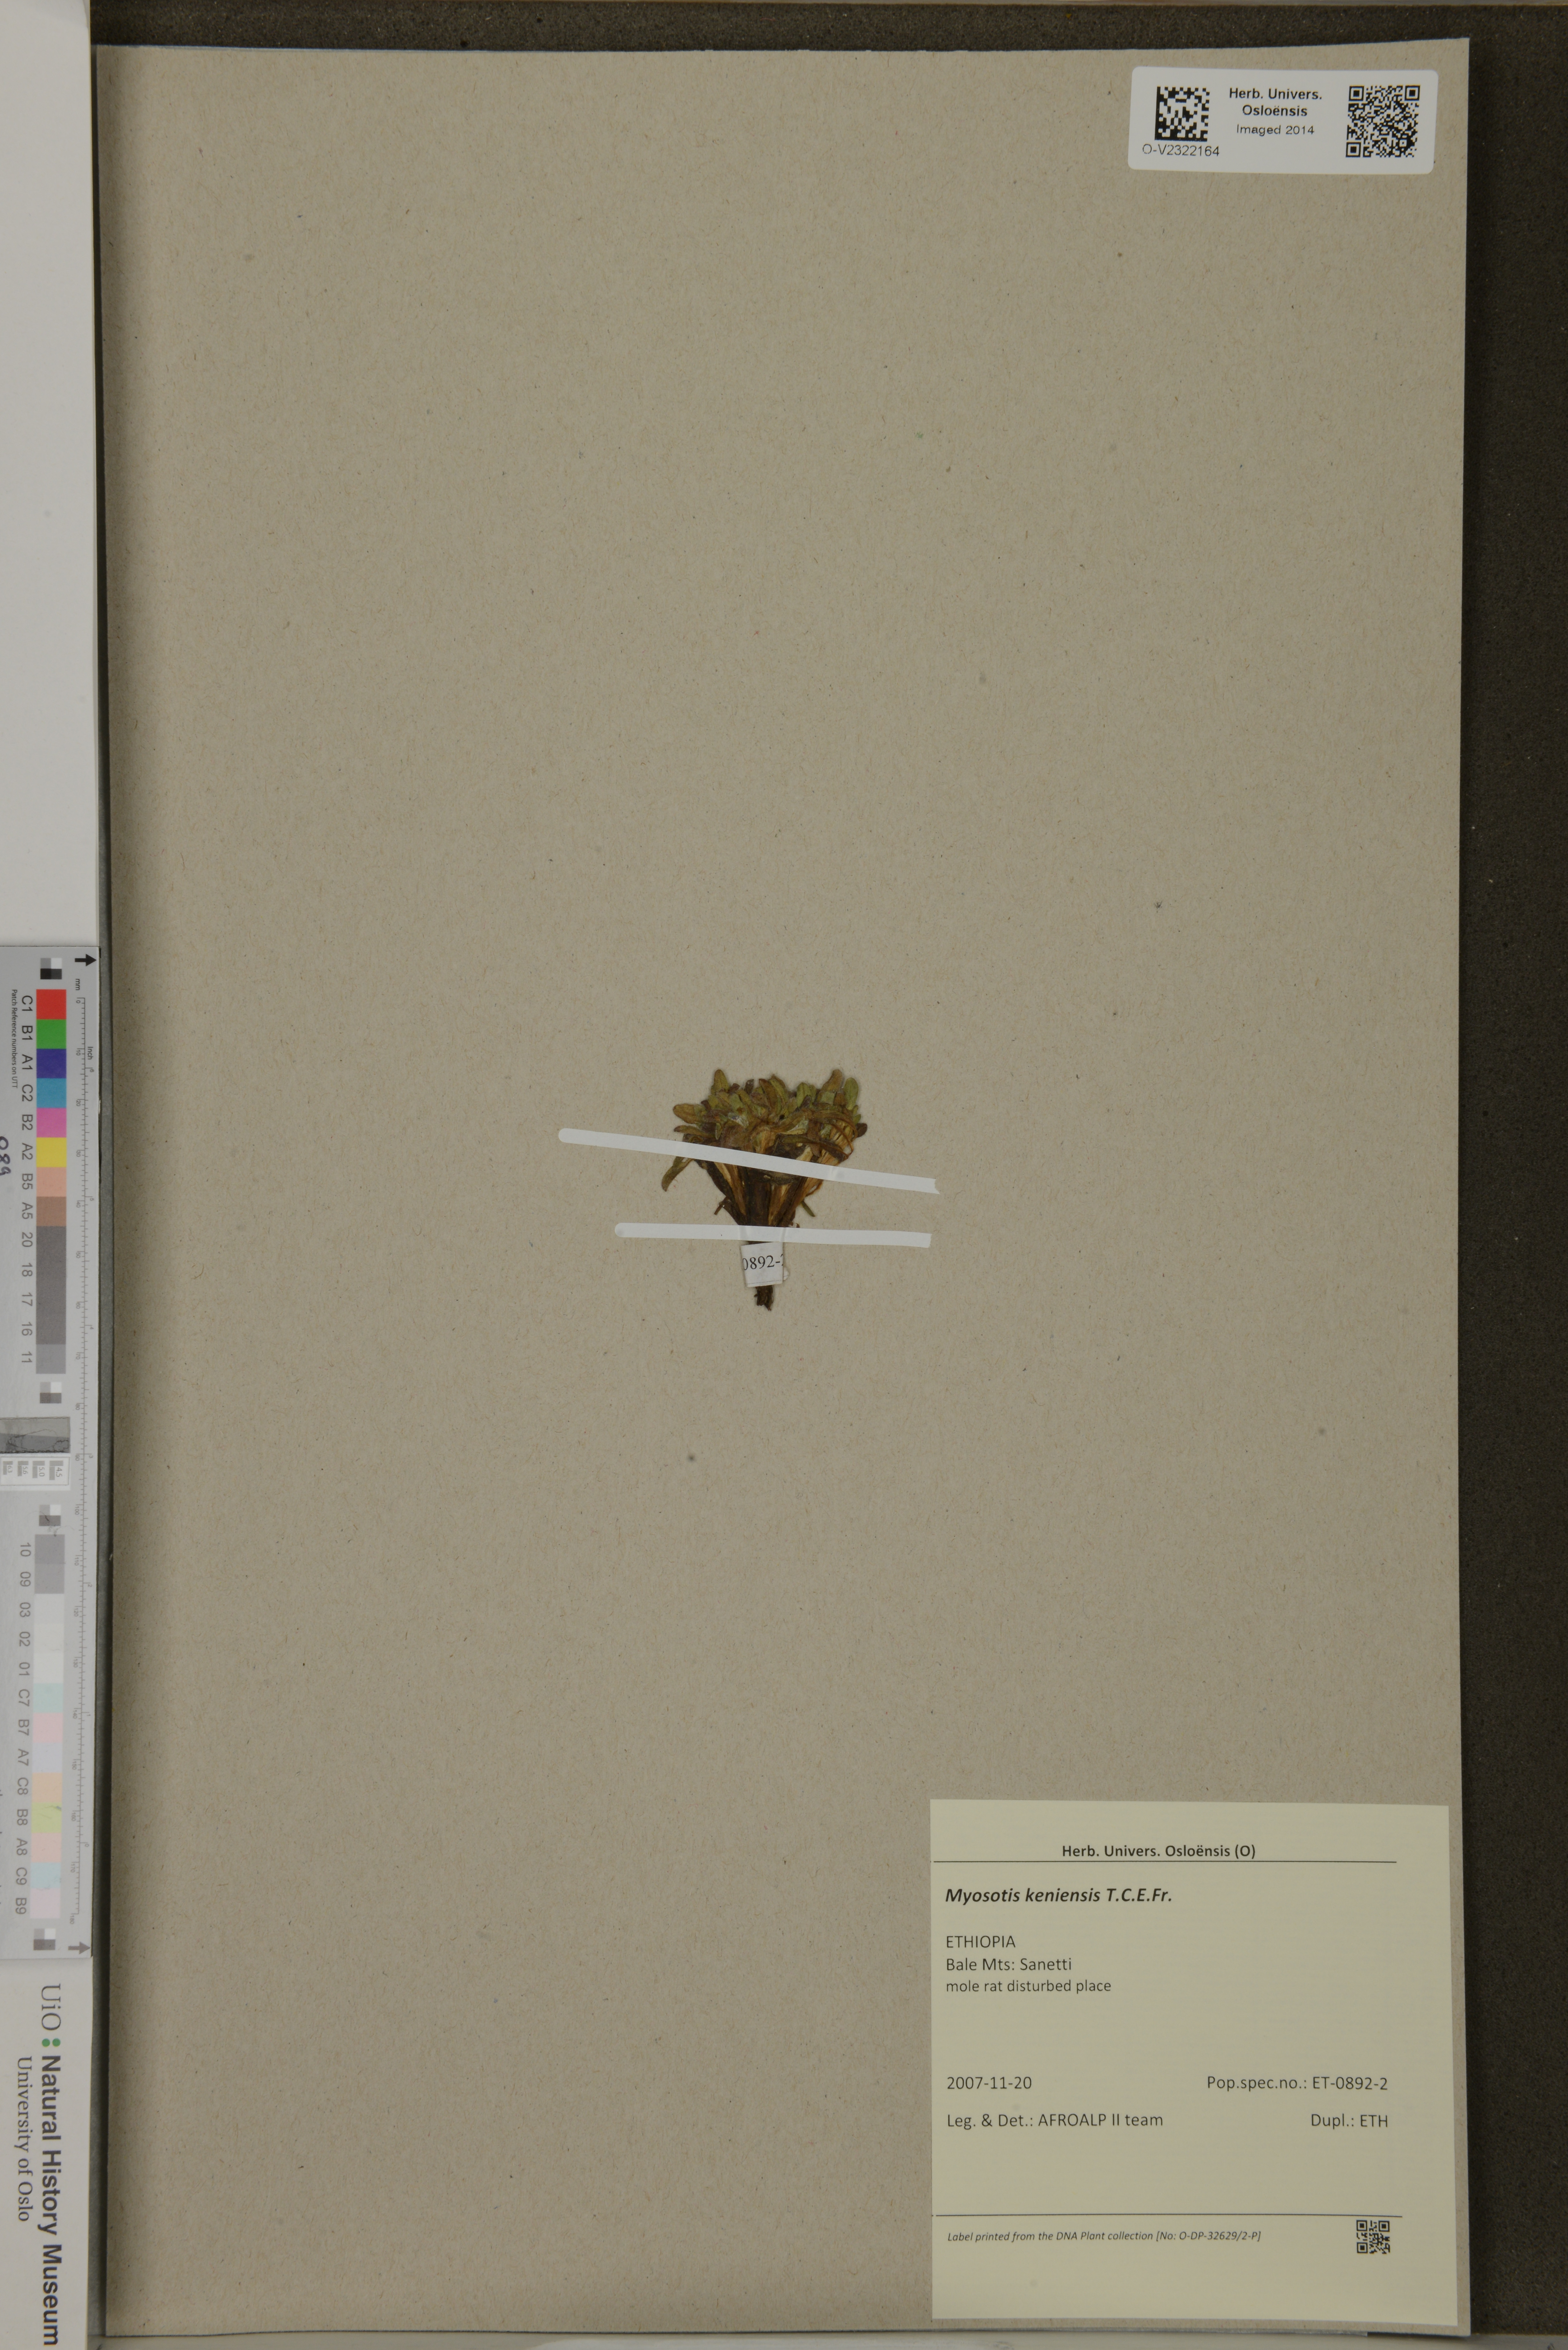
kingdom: Plantae
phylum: Tracheophyta
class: Magnoliopsida
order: Boraginales
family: Boraginaceae
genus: Myosotis
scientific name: Myosotis keniensis
